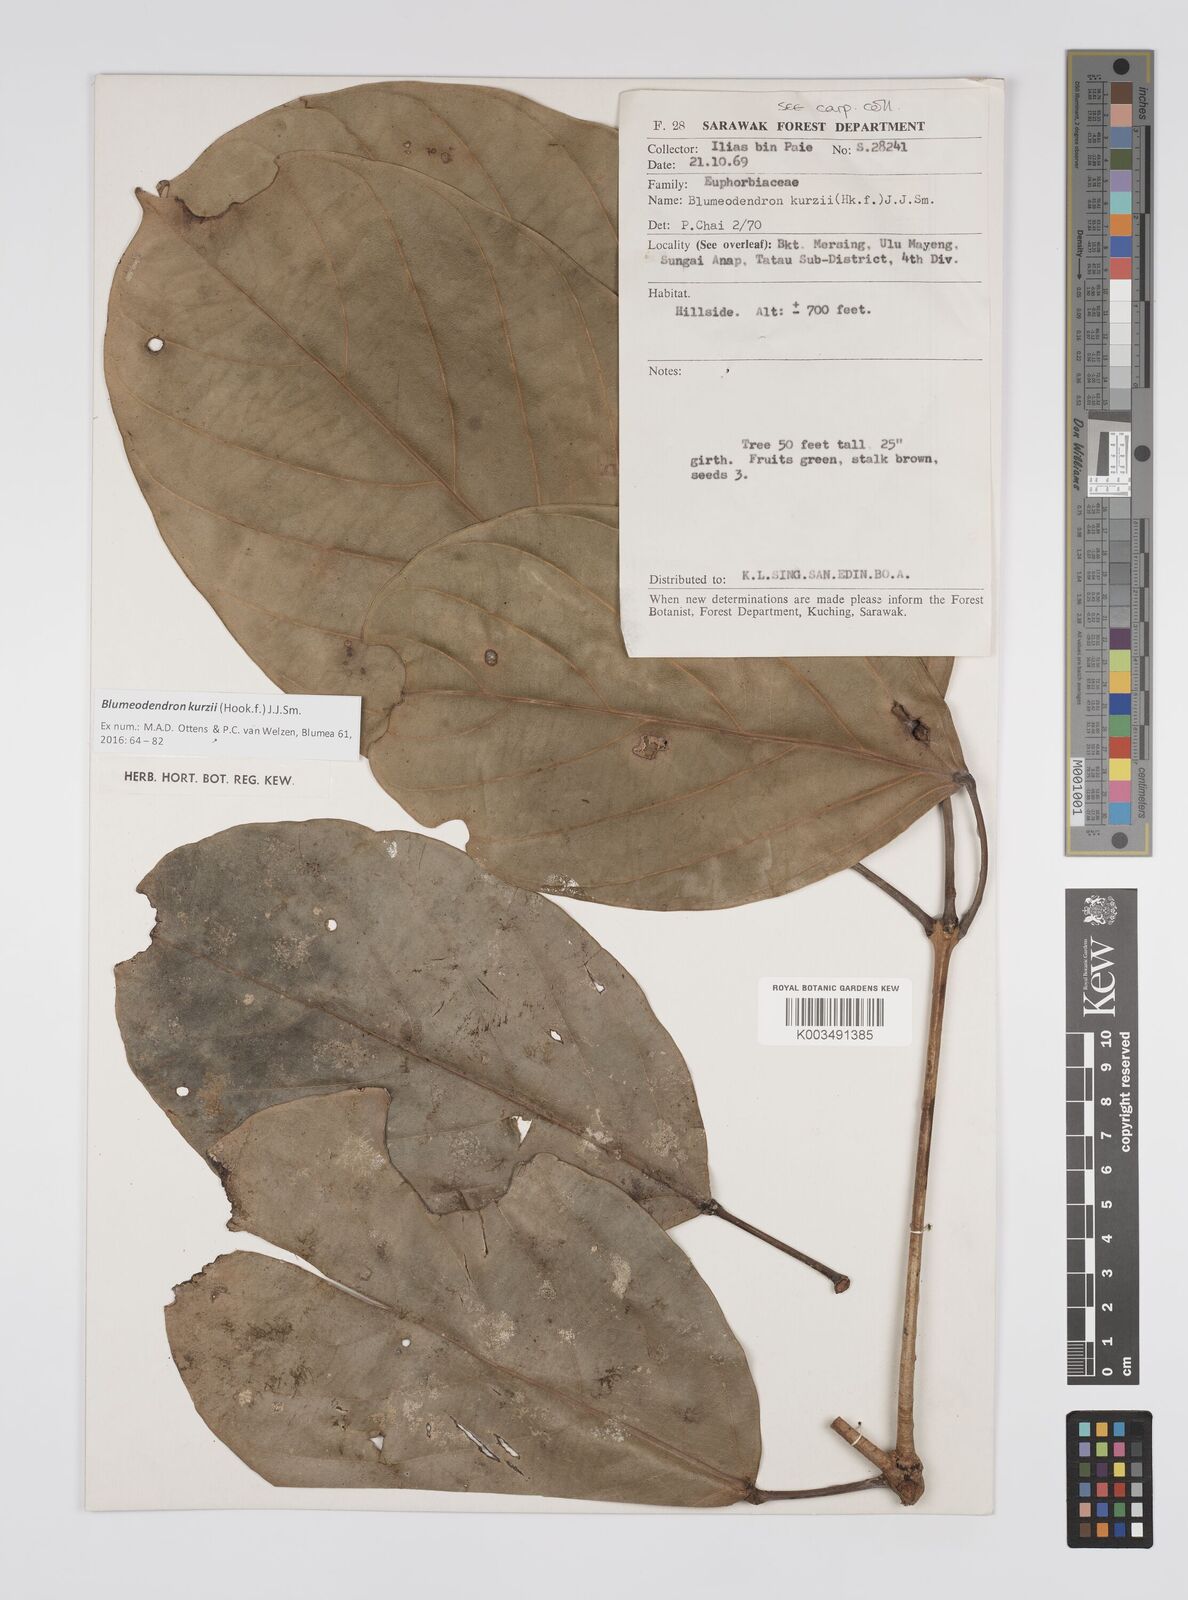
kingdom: Plantae
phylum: Tracheophyta
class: Magnoliopsida
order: Malpighiales
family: Euphorbiaceae
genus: Blumeodendron
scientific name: Blumeodendron kurzii
